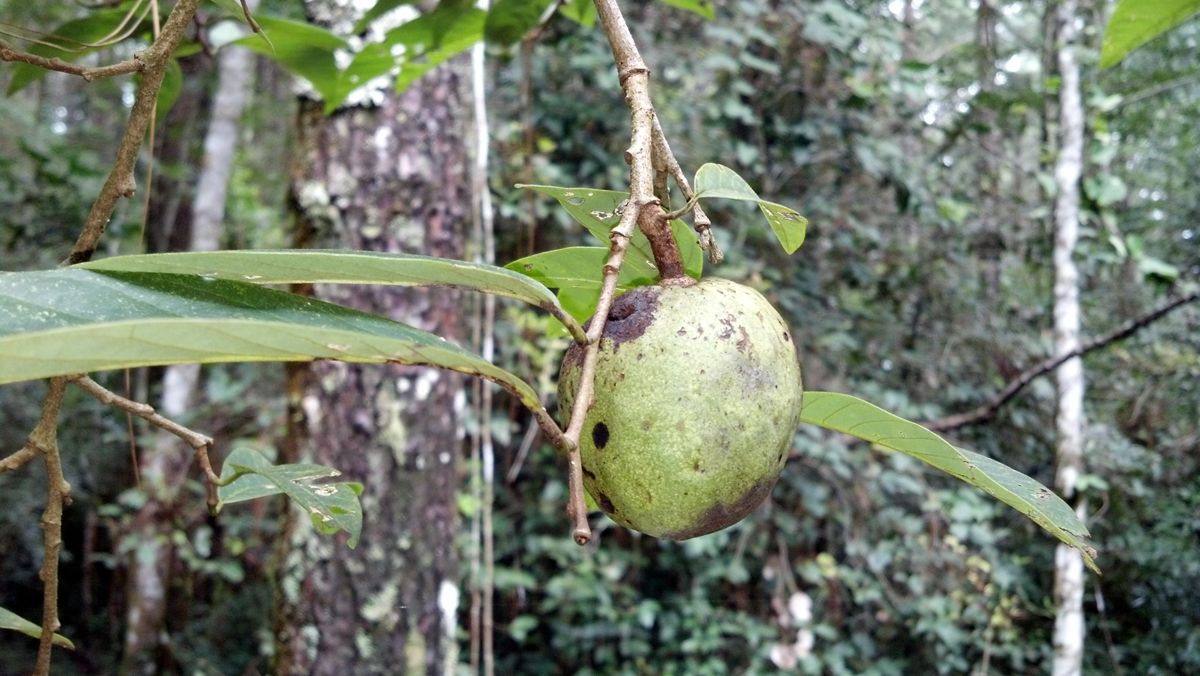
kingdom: Plantae
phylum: Tracheophyta
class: Magnoliopsida
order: Magnoliales
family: Annonaceae
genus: Annona
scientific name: Annona cherimola
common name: Cherimoya
